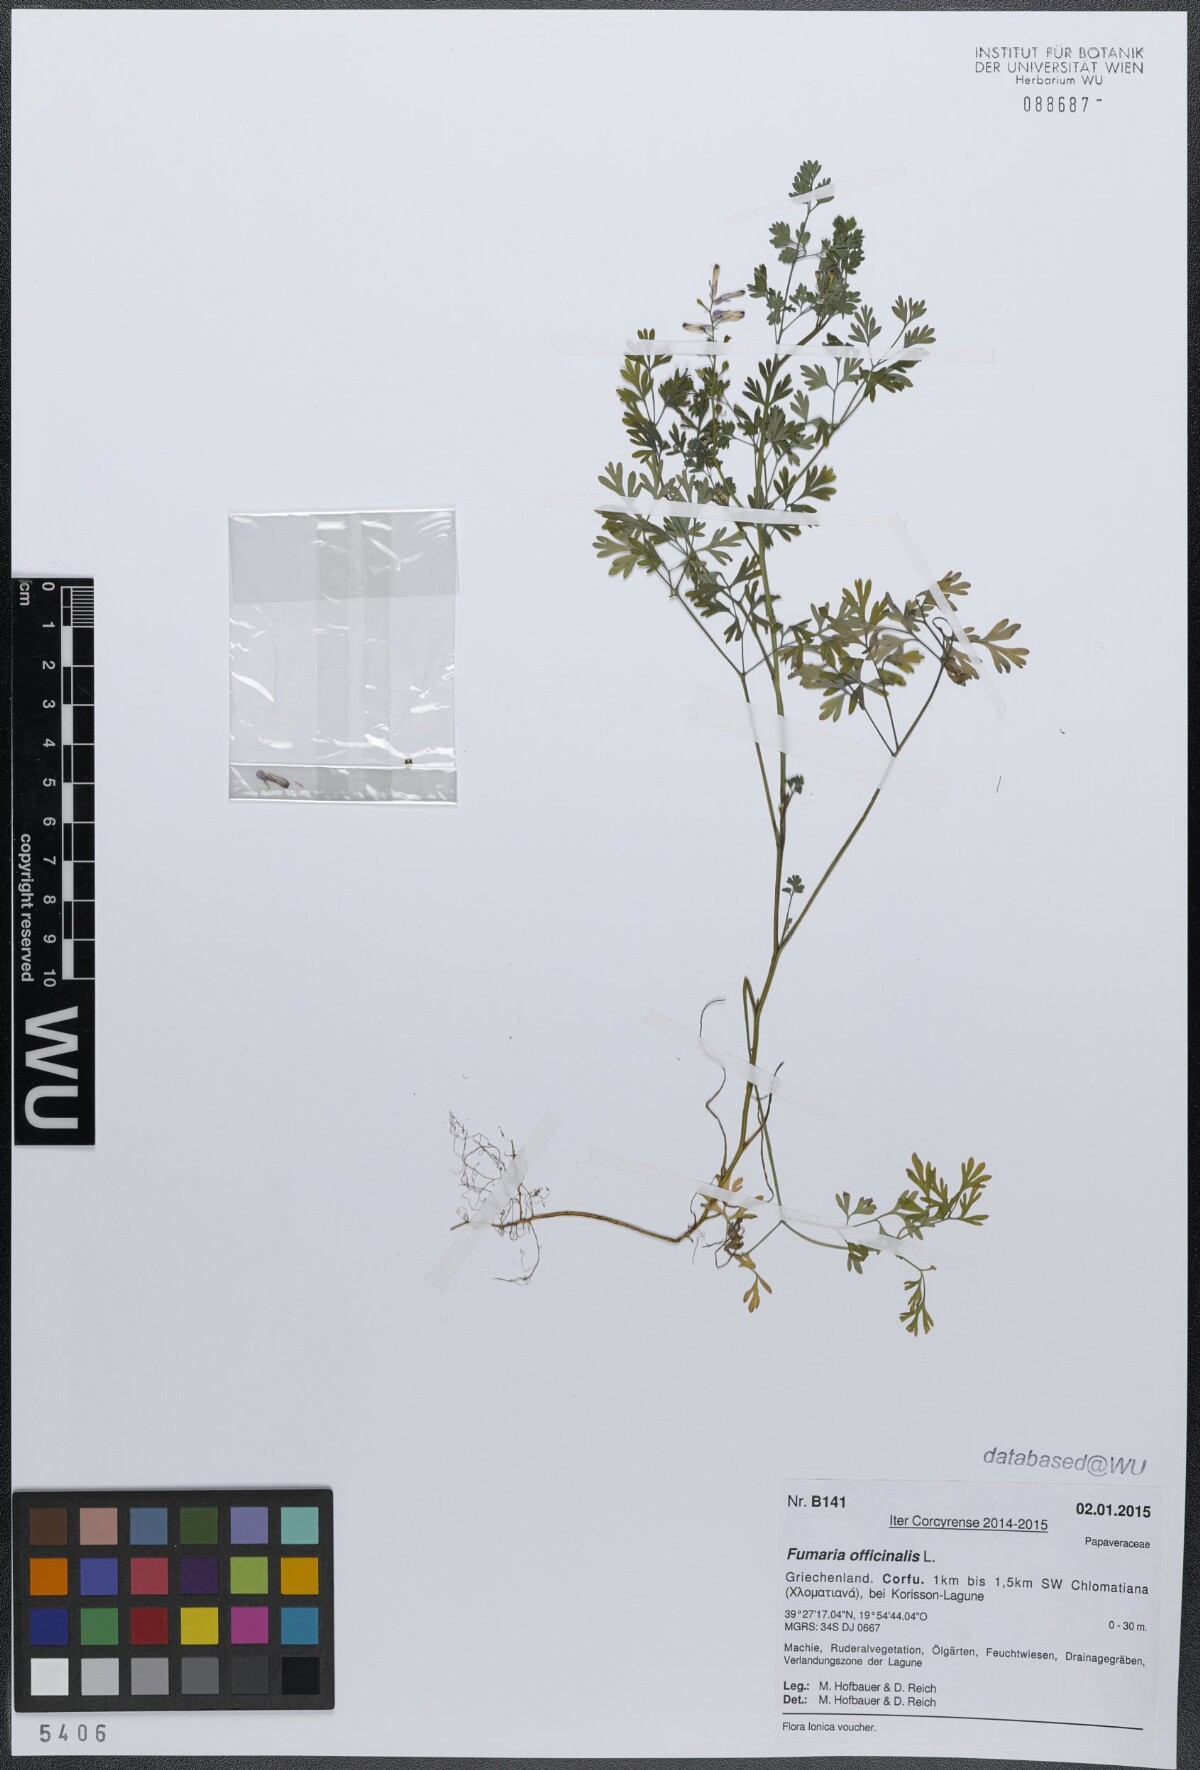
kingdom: Plantae
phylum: Tracheophyta
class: Magnoliopsida
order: Ranunculales
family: Papaveraceae
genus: Fumaria
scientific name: Fumaria officinalis
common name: Common fumitory
